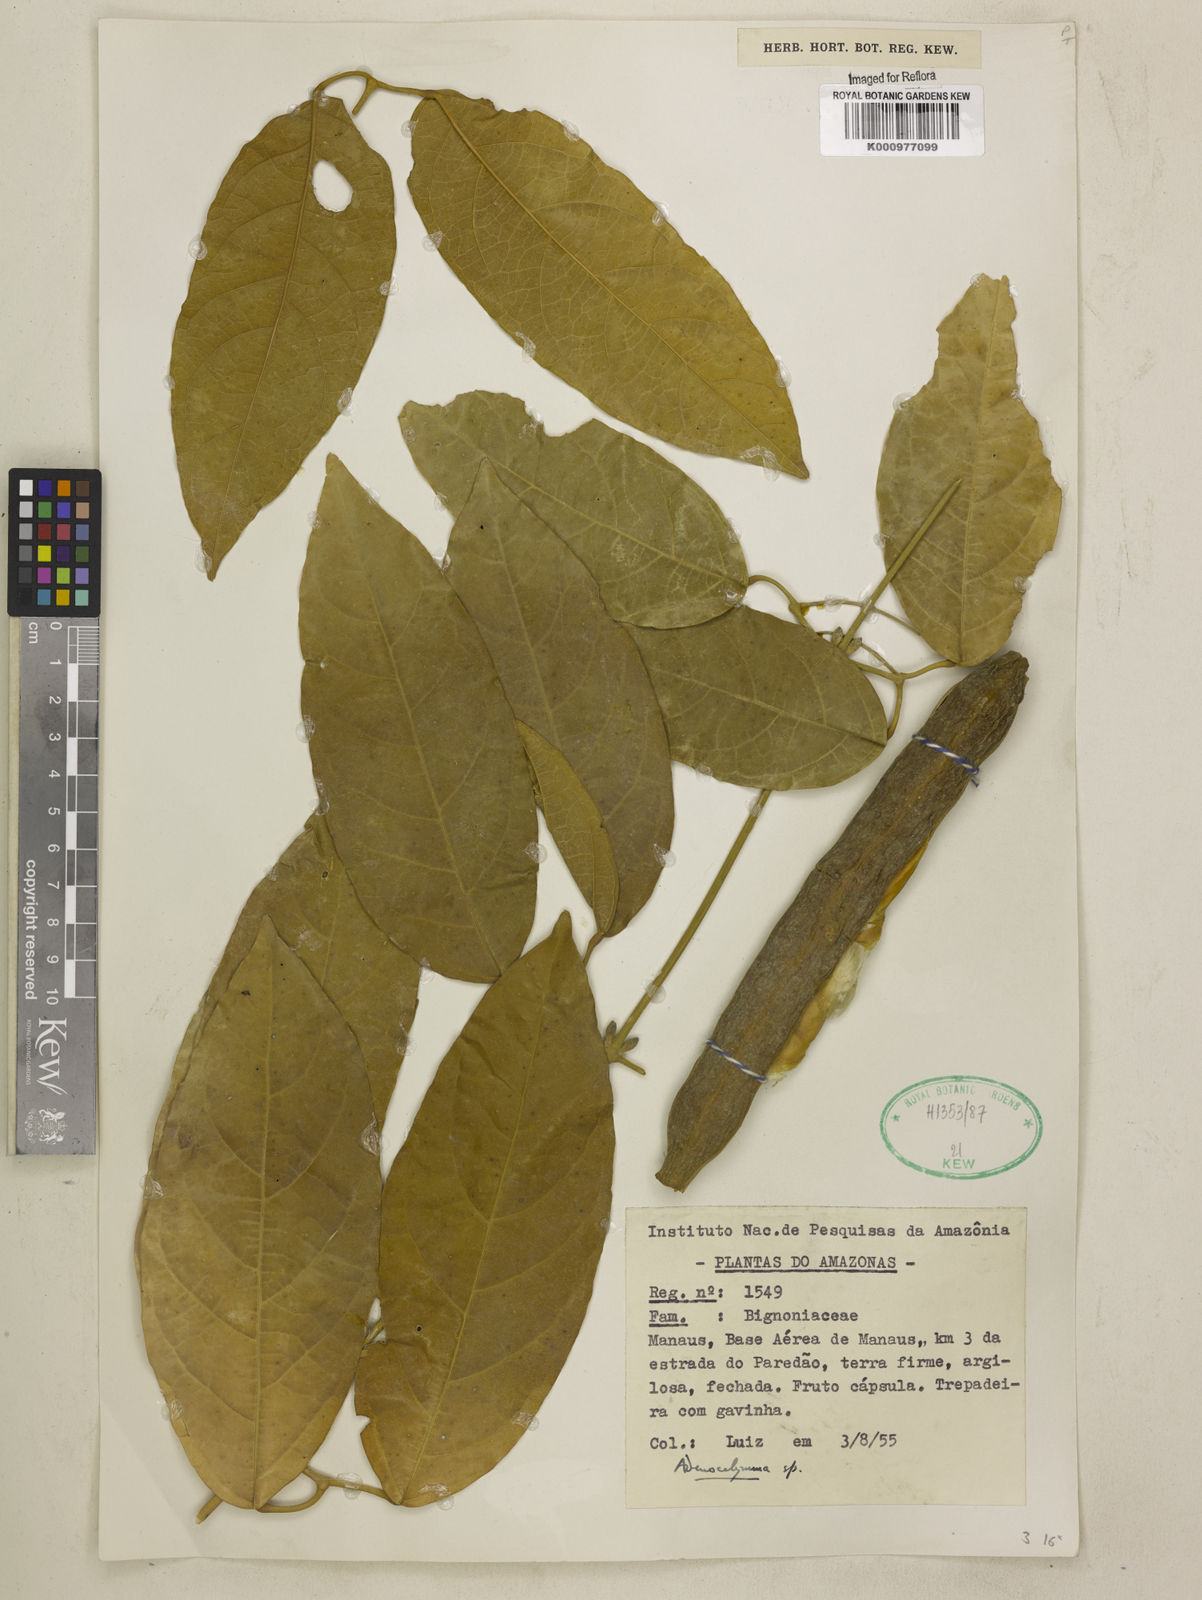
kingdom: Plantae
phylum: Tracheophyta
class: Magnoliopsida
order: Lamiales
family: Bignoniaceae
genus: Adenocalymma
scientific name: Adenocalymma
